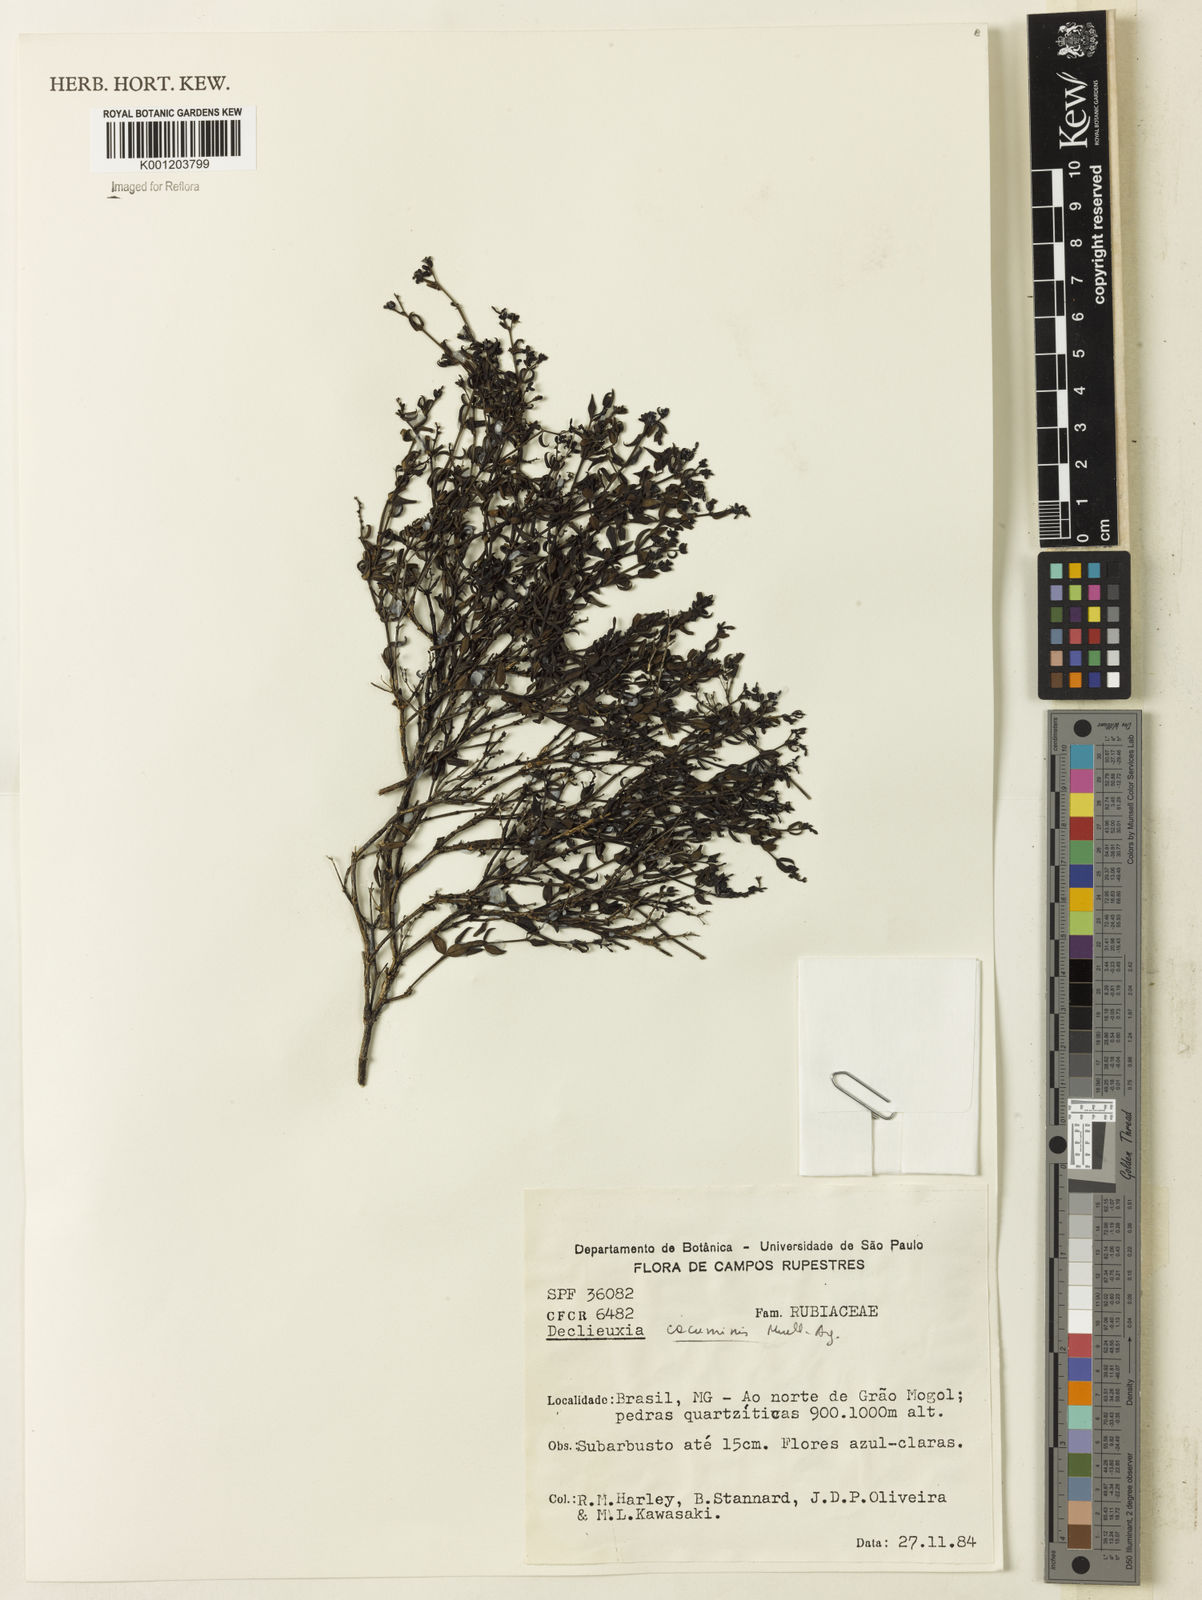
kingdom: Plantae
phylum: Tracheophyta
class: Magnoliopsida
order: Gentianales
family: Rubiaceae
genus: Declieuxia
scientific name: Declieuxia
